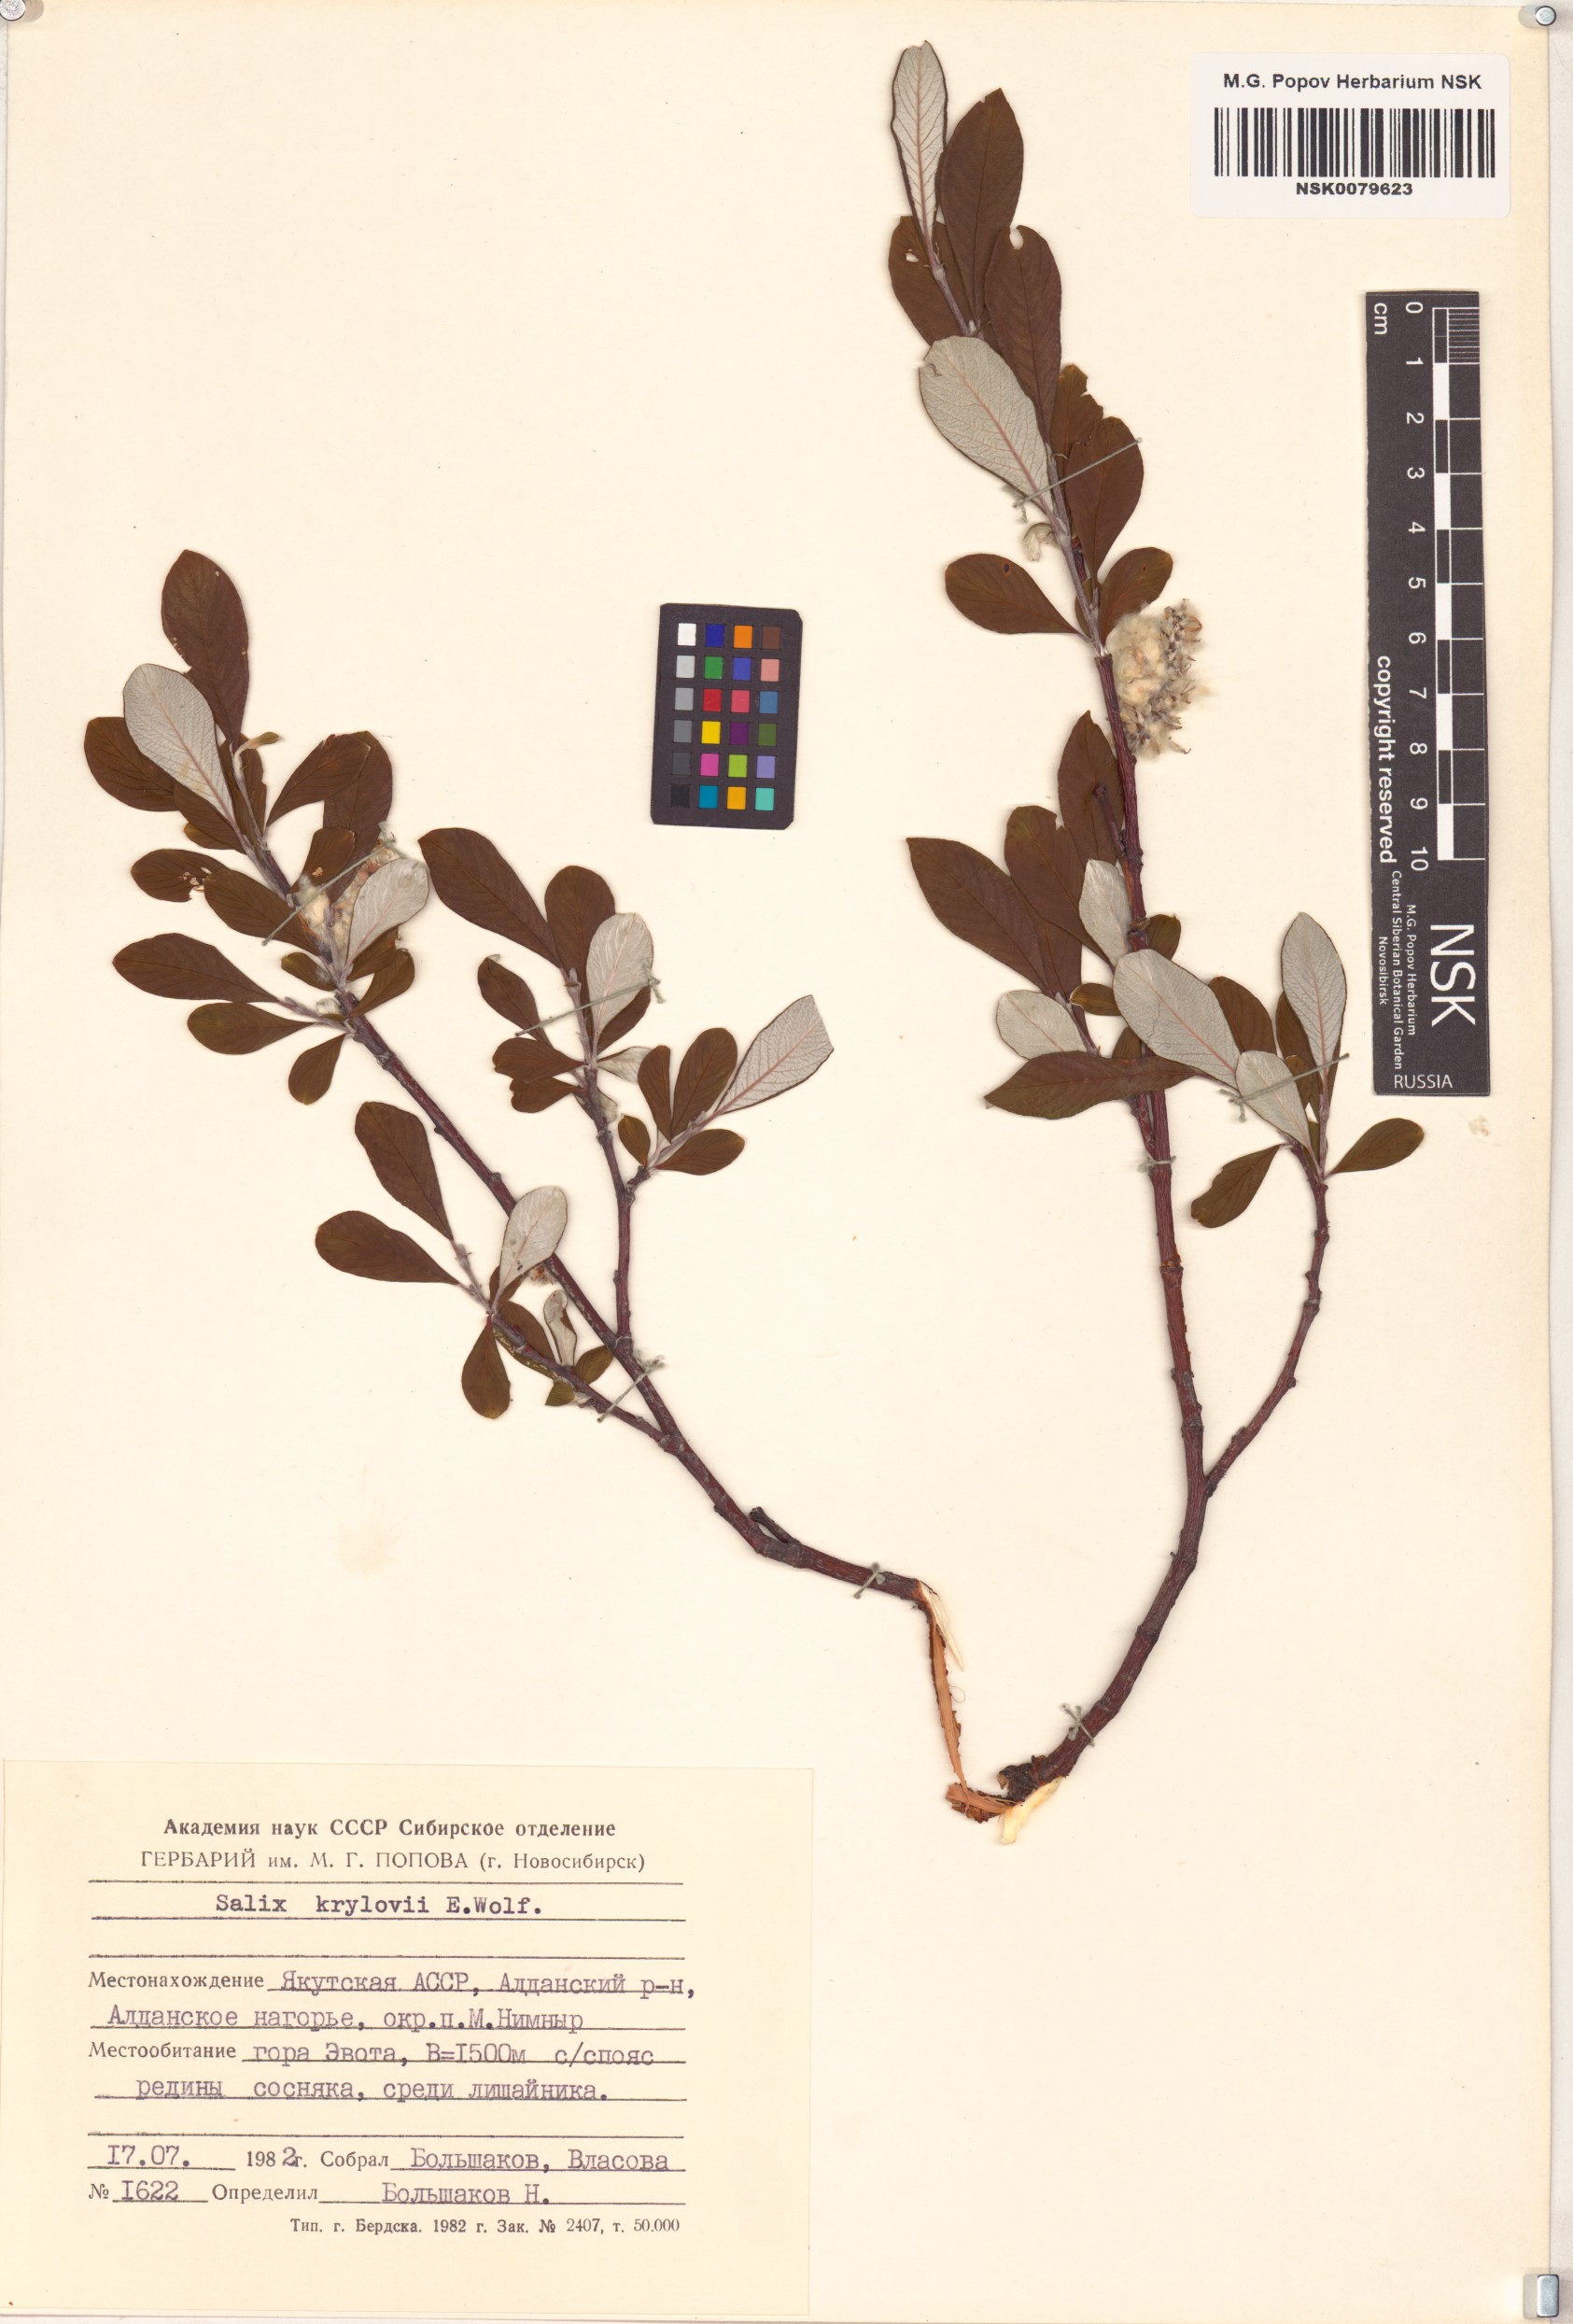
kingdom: Plantae
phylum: Tracheophyta
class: Magnoliopsida
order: Malpighiales
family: Salicaceae
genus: Salix
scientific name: Salix krylovii
